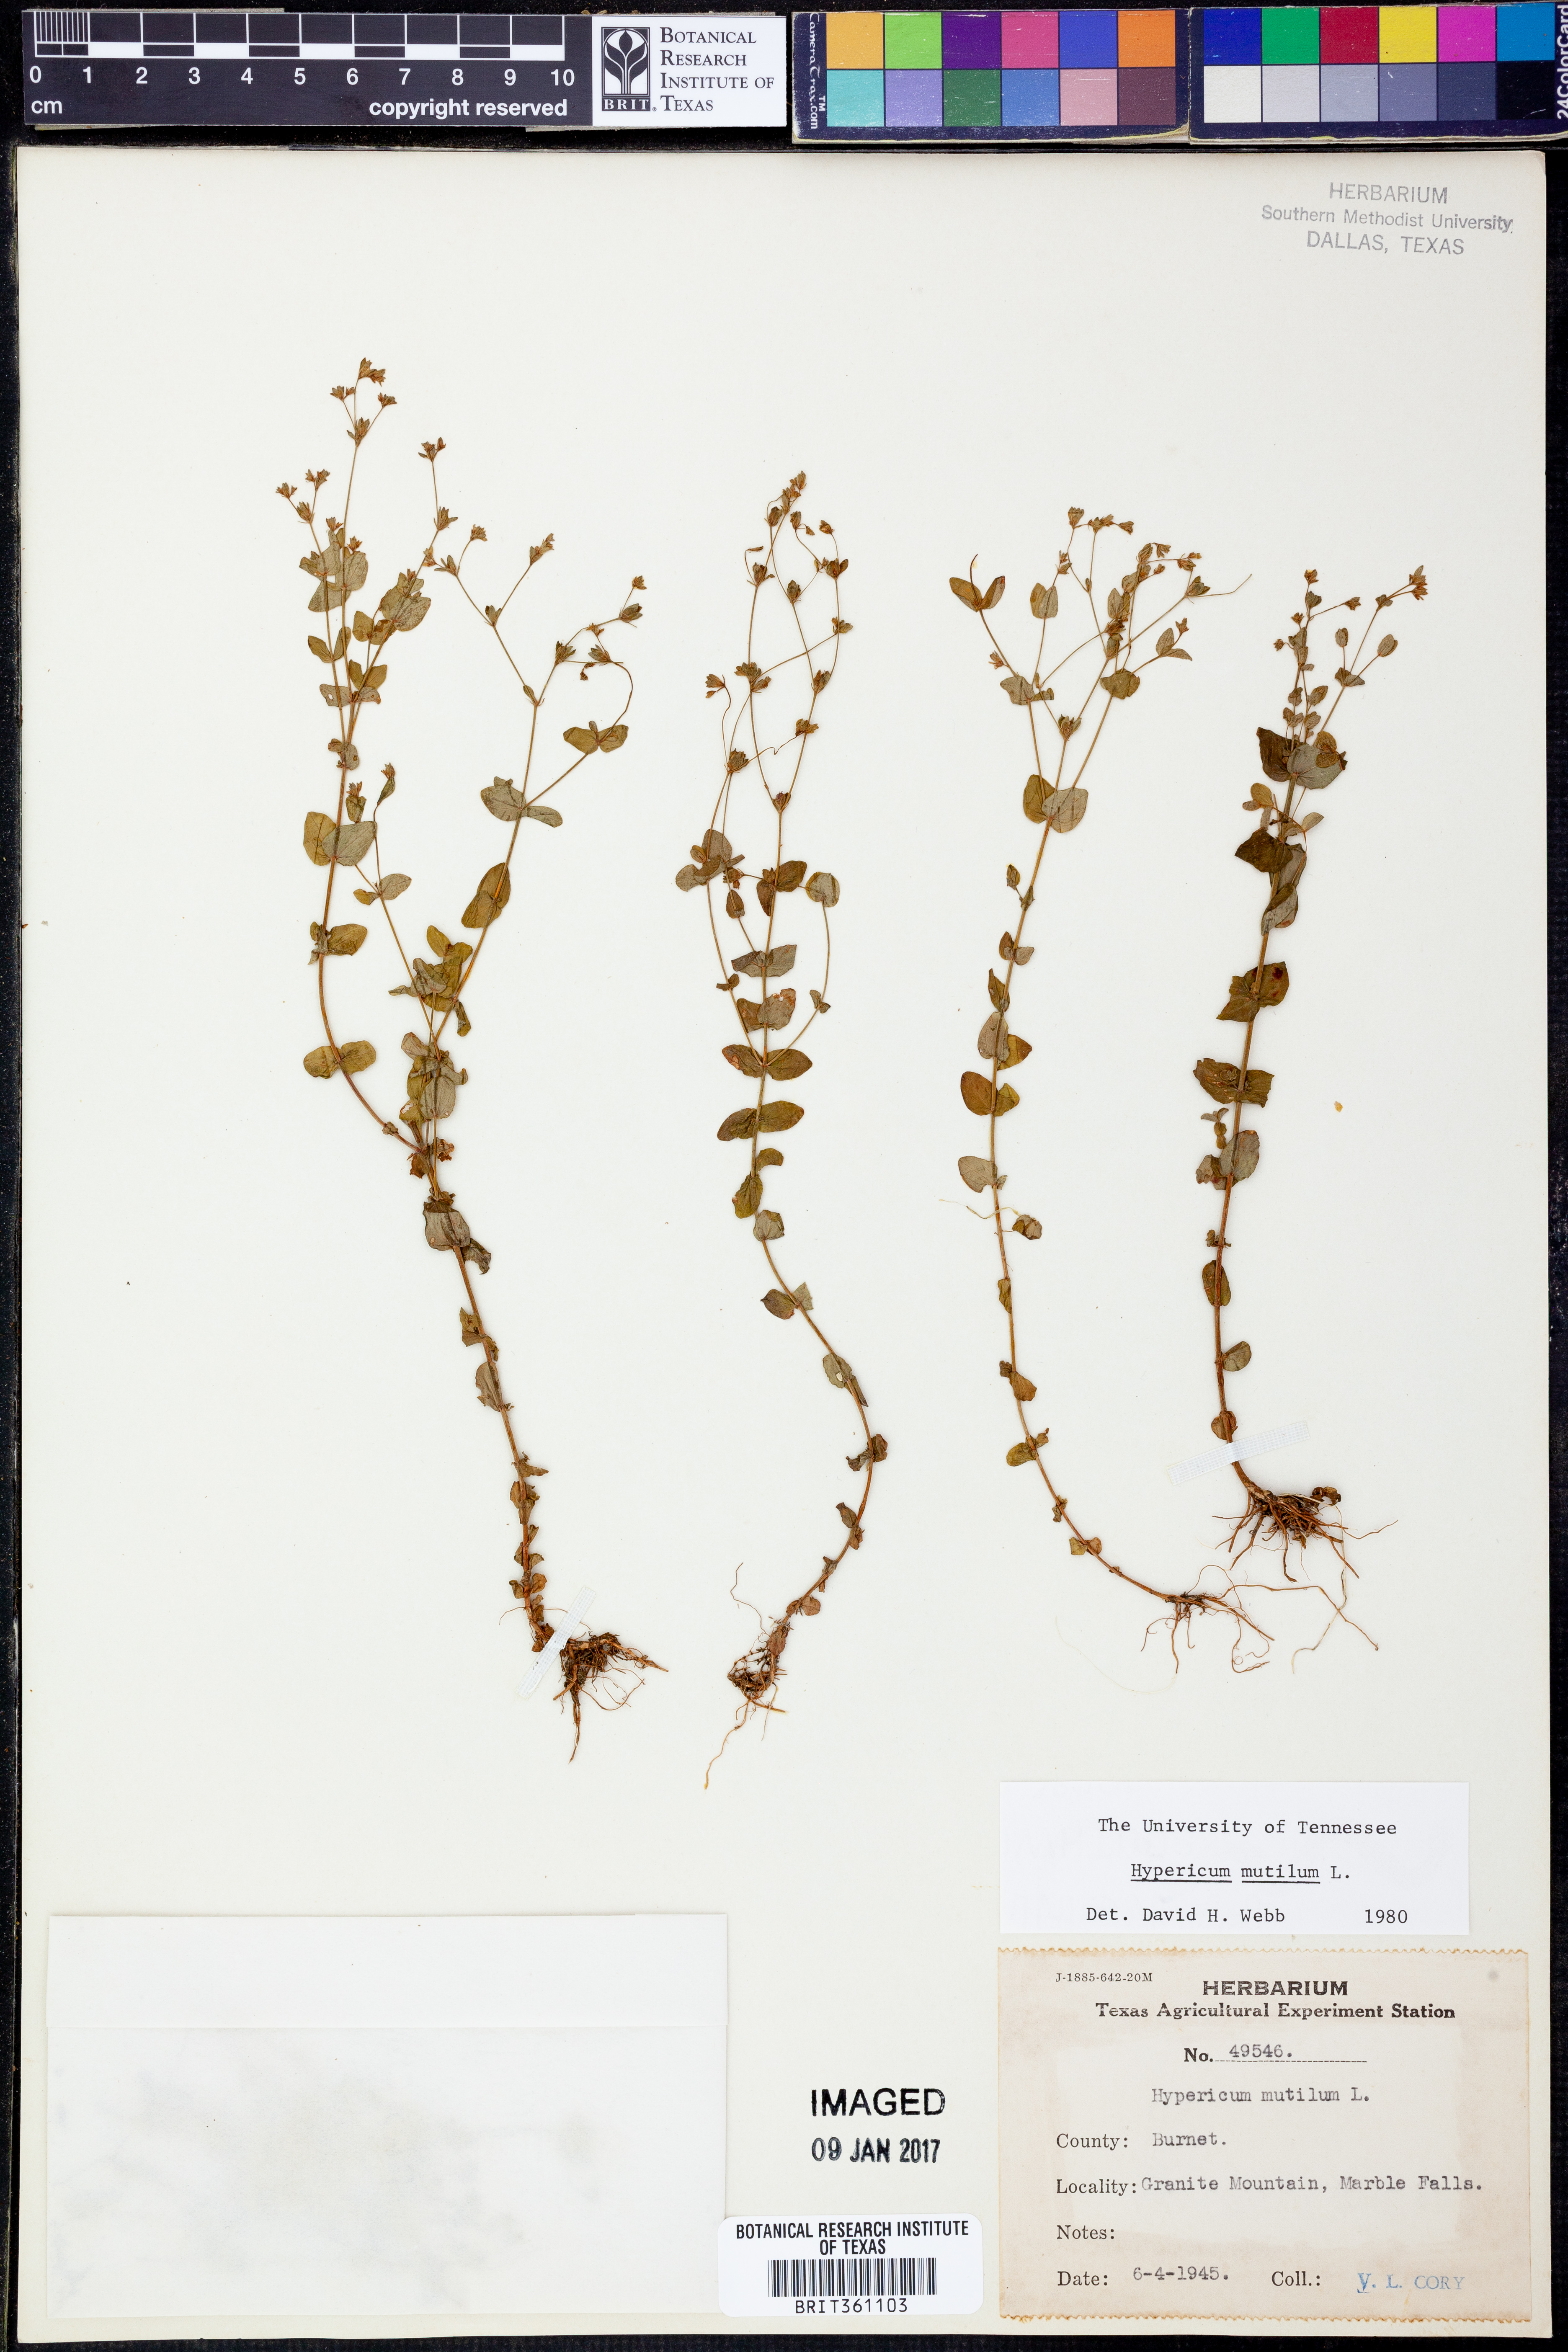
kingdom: Plantae
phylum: Tracheophyta
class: Magnoliopsida
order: Malpighiales
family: Hypericaceae
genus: Hypericum
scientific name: Hypericum mutilum
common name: Dwarf st. john's-wort
